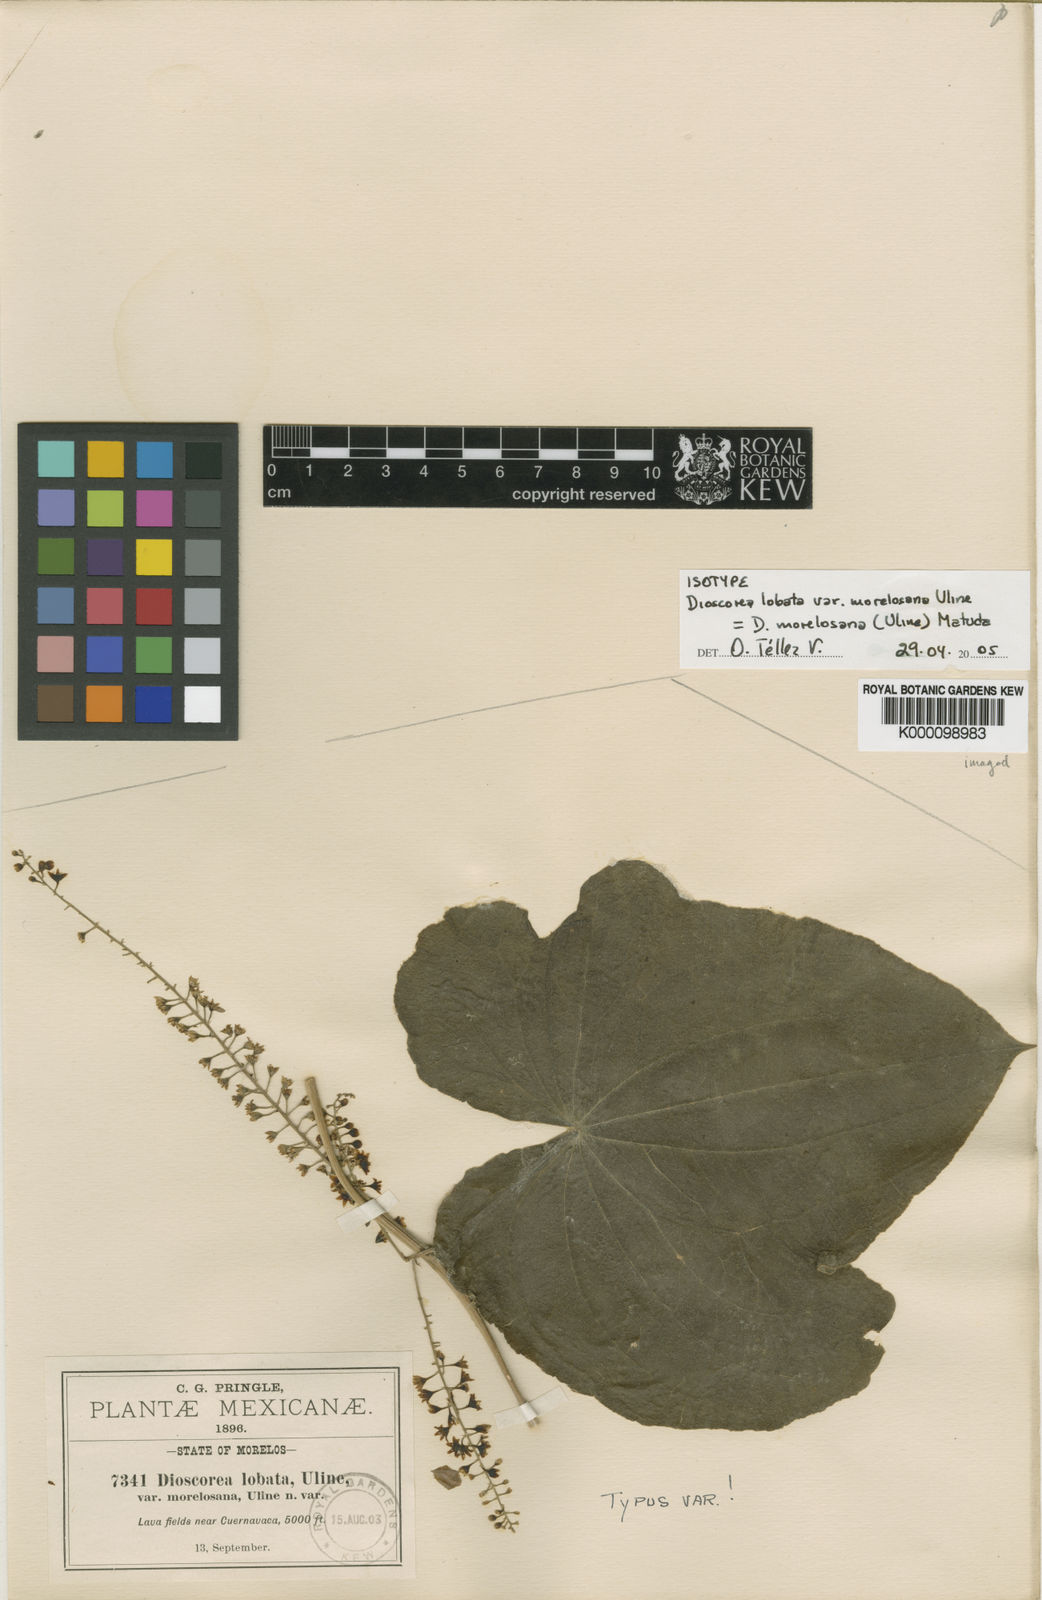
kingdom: Plantae
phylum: Tracheophyta
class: Liliopsida
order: Dioscoreales
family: Dioscoreaceae
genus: Dioscorea
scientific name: Dioscorea morelosana
